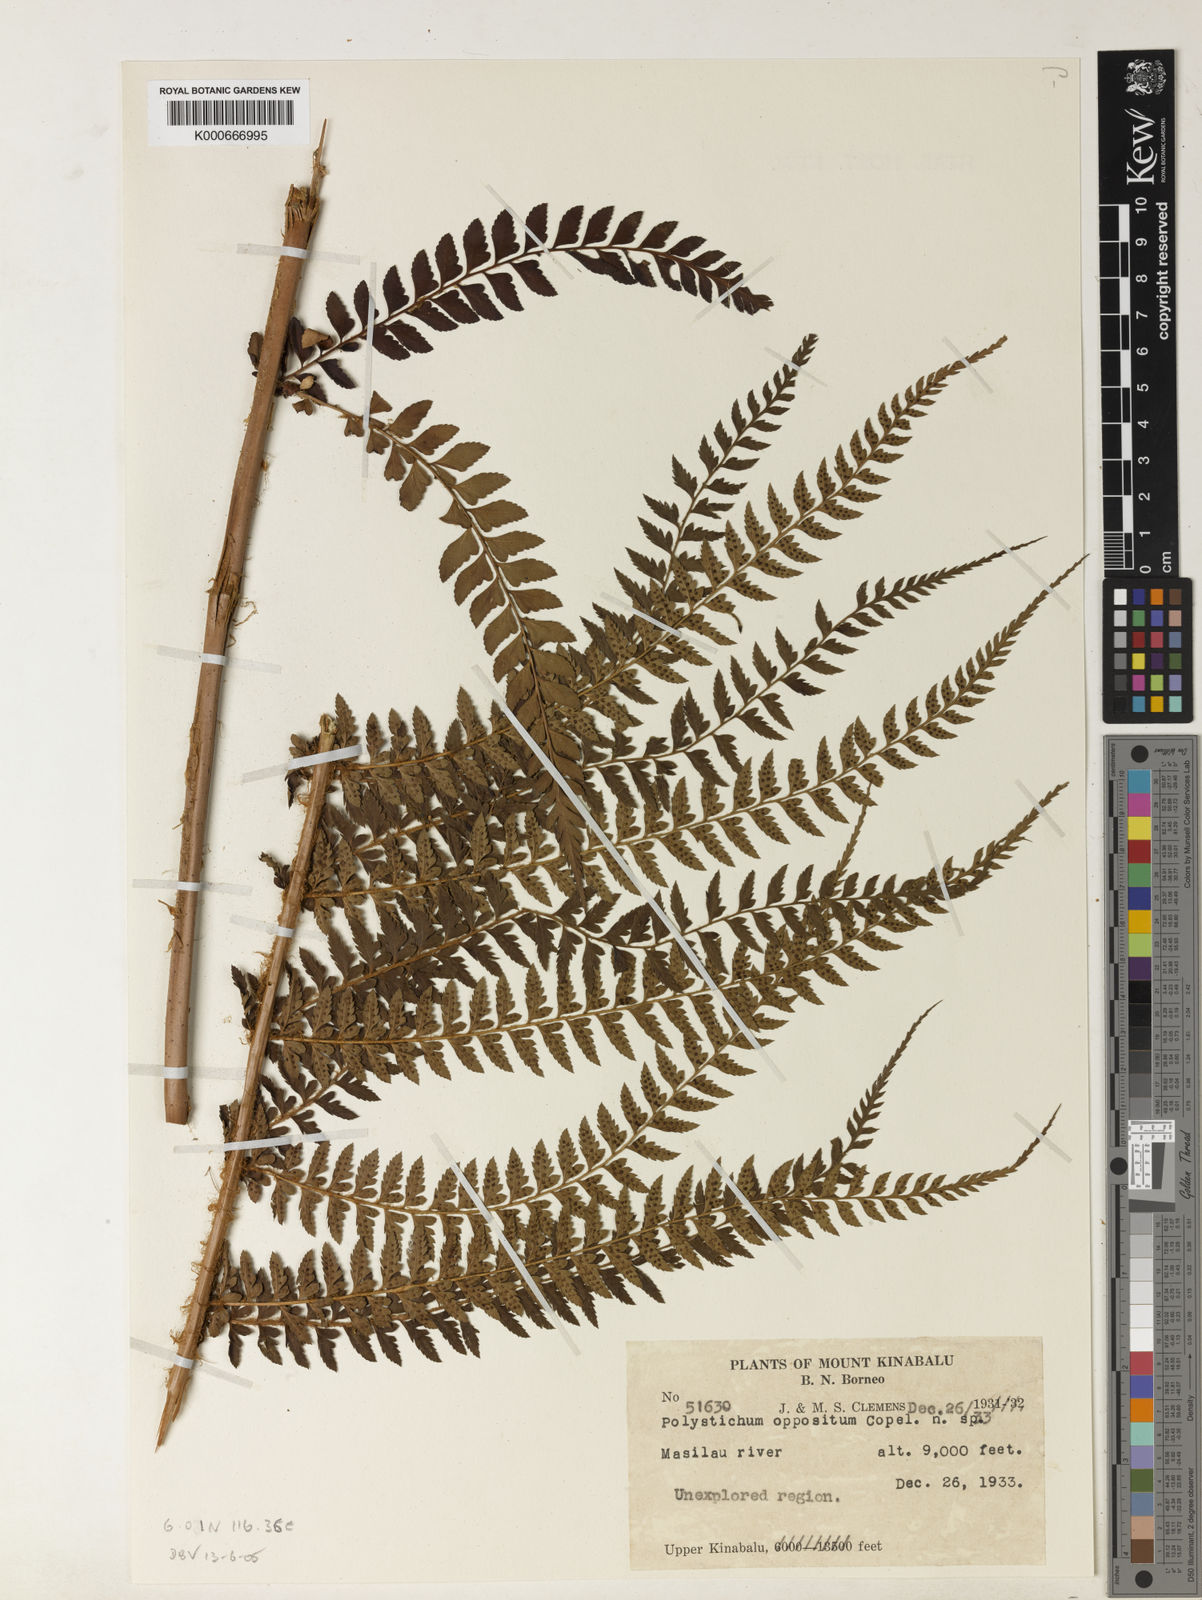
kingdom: Plantae
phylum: Tracheophyta
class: Polypodiopsida
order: Polypodiales
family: Dryopteridaceae
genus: Polystichum
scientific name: Polystichum moluccense
